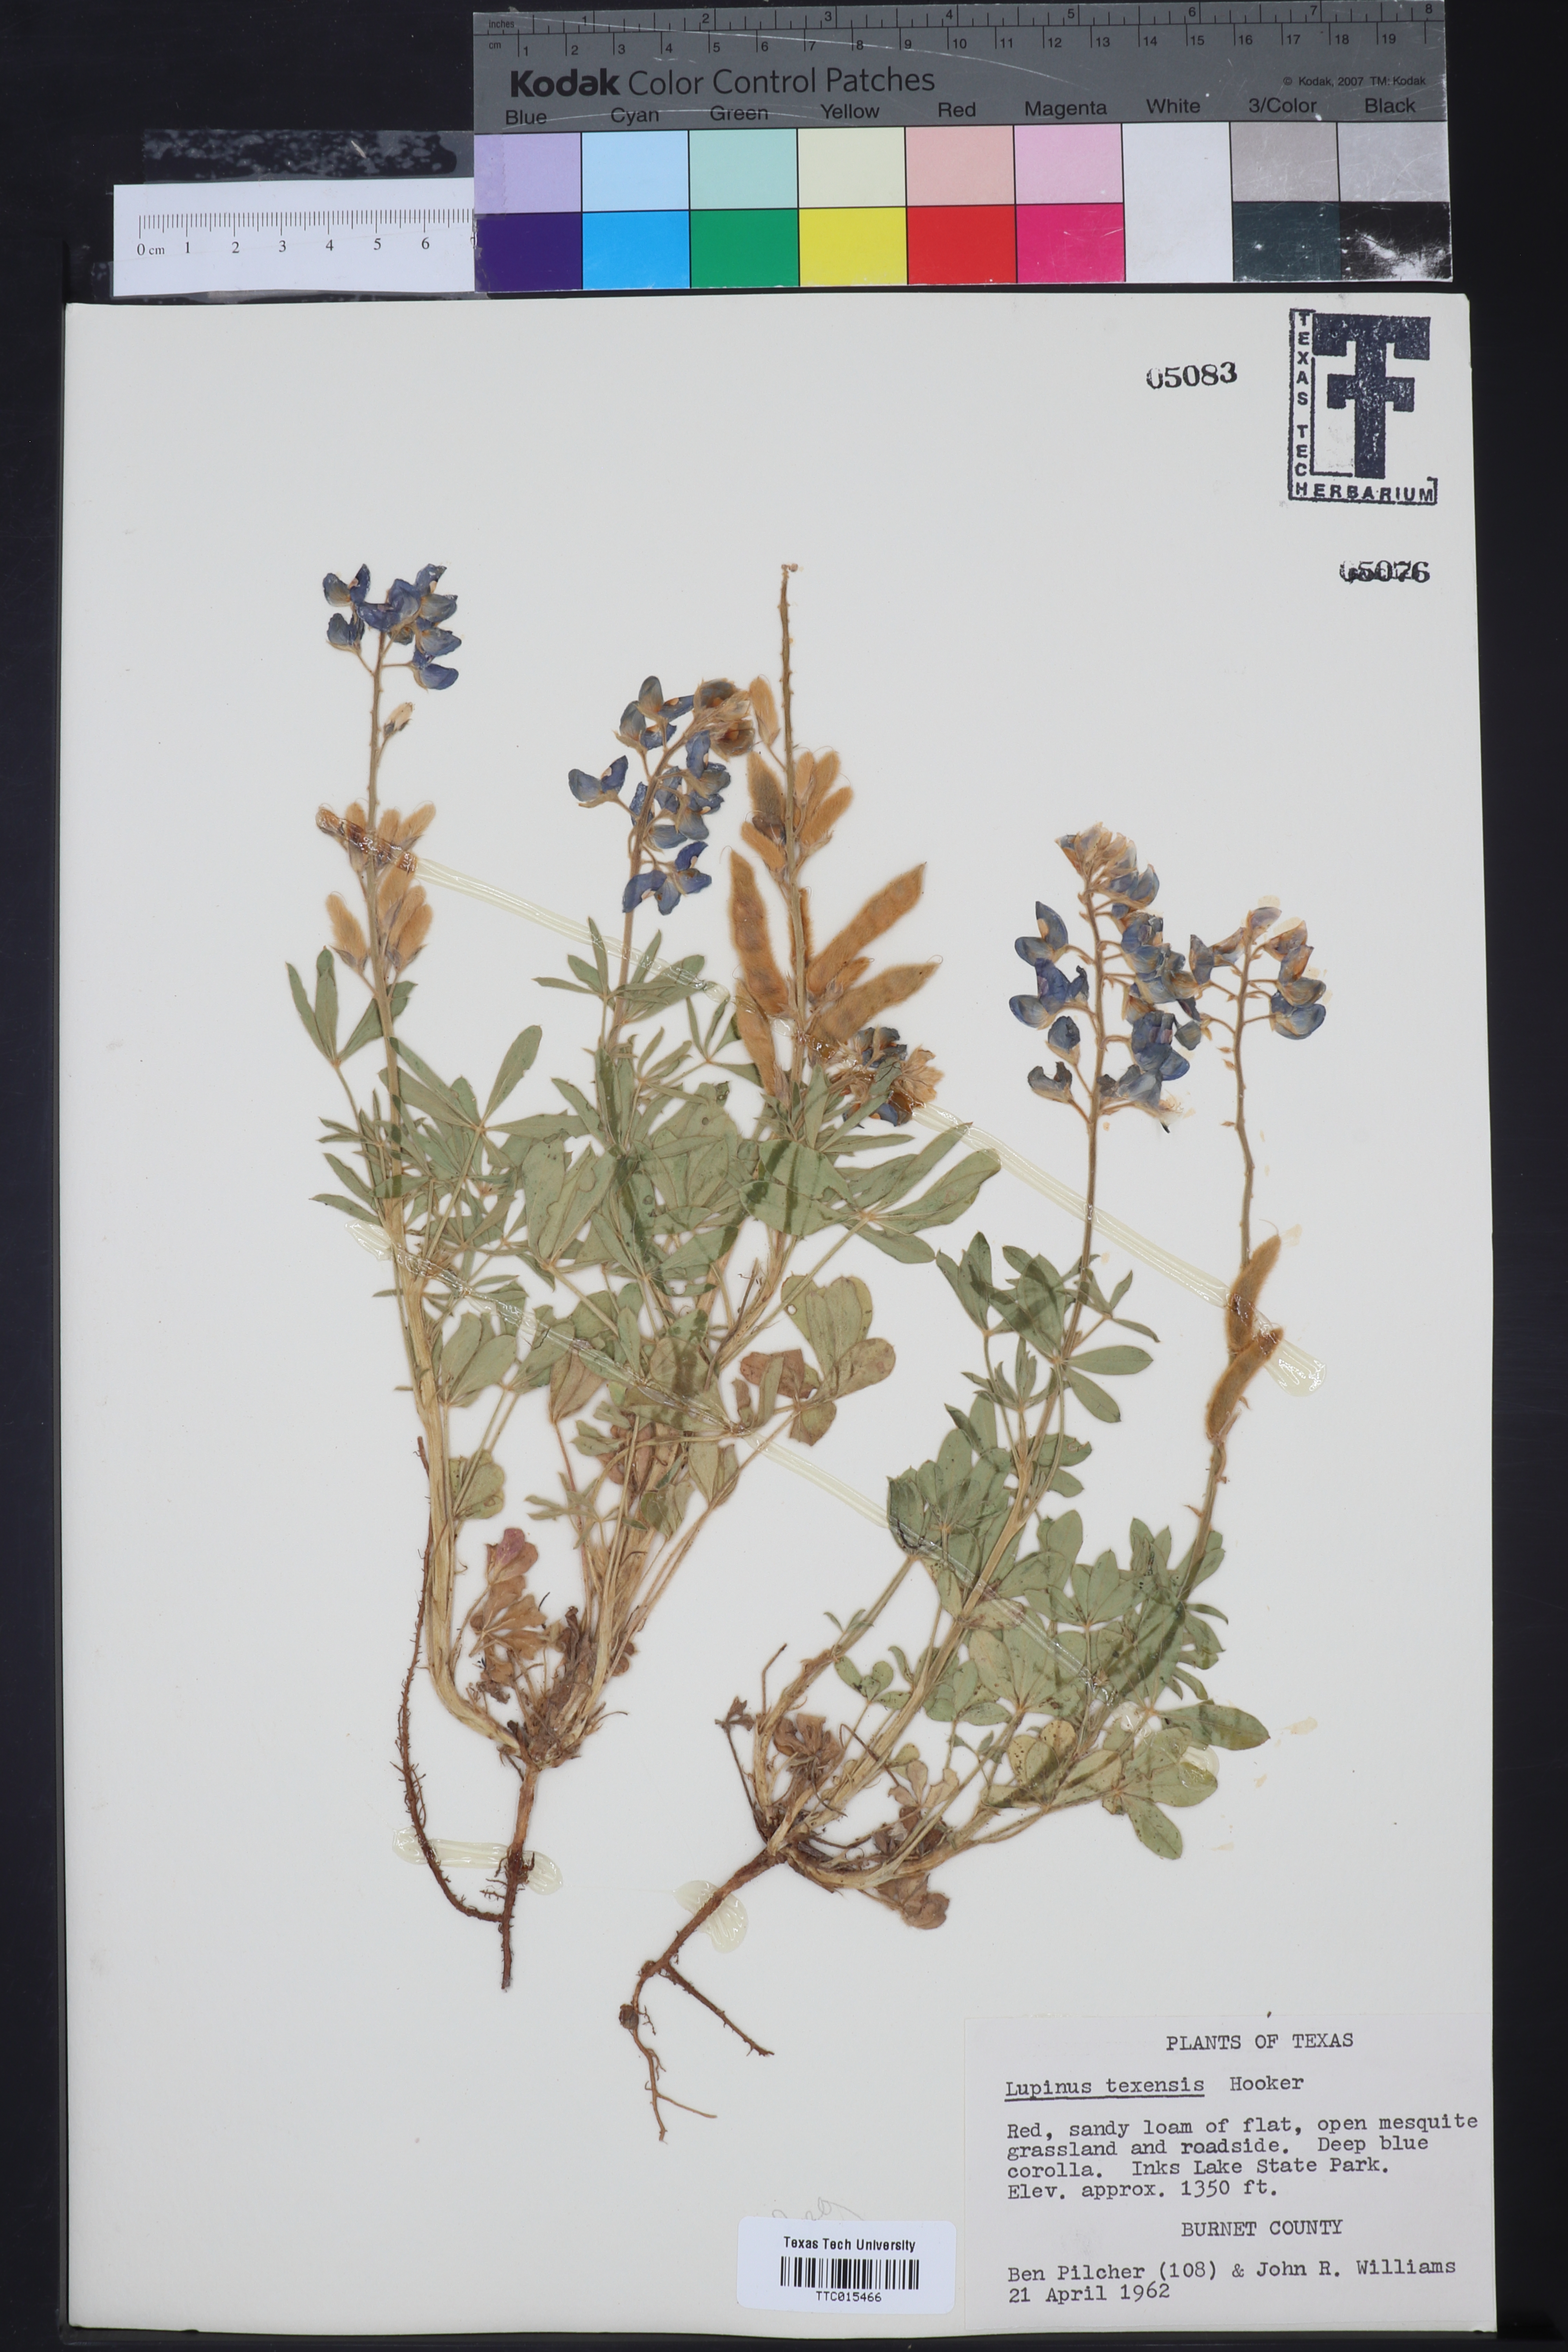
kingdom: Plantae
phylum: Tracheophyta
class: Magnoliopsida
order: Fabales
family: Fabaceae
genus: Lupinus
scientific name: Lupinus texensis
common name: Texas bluebonnet
